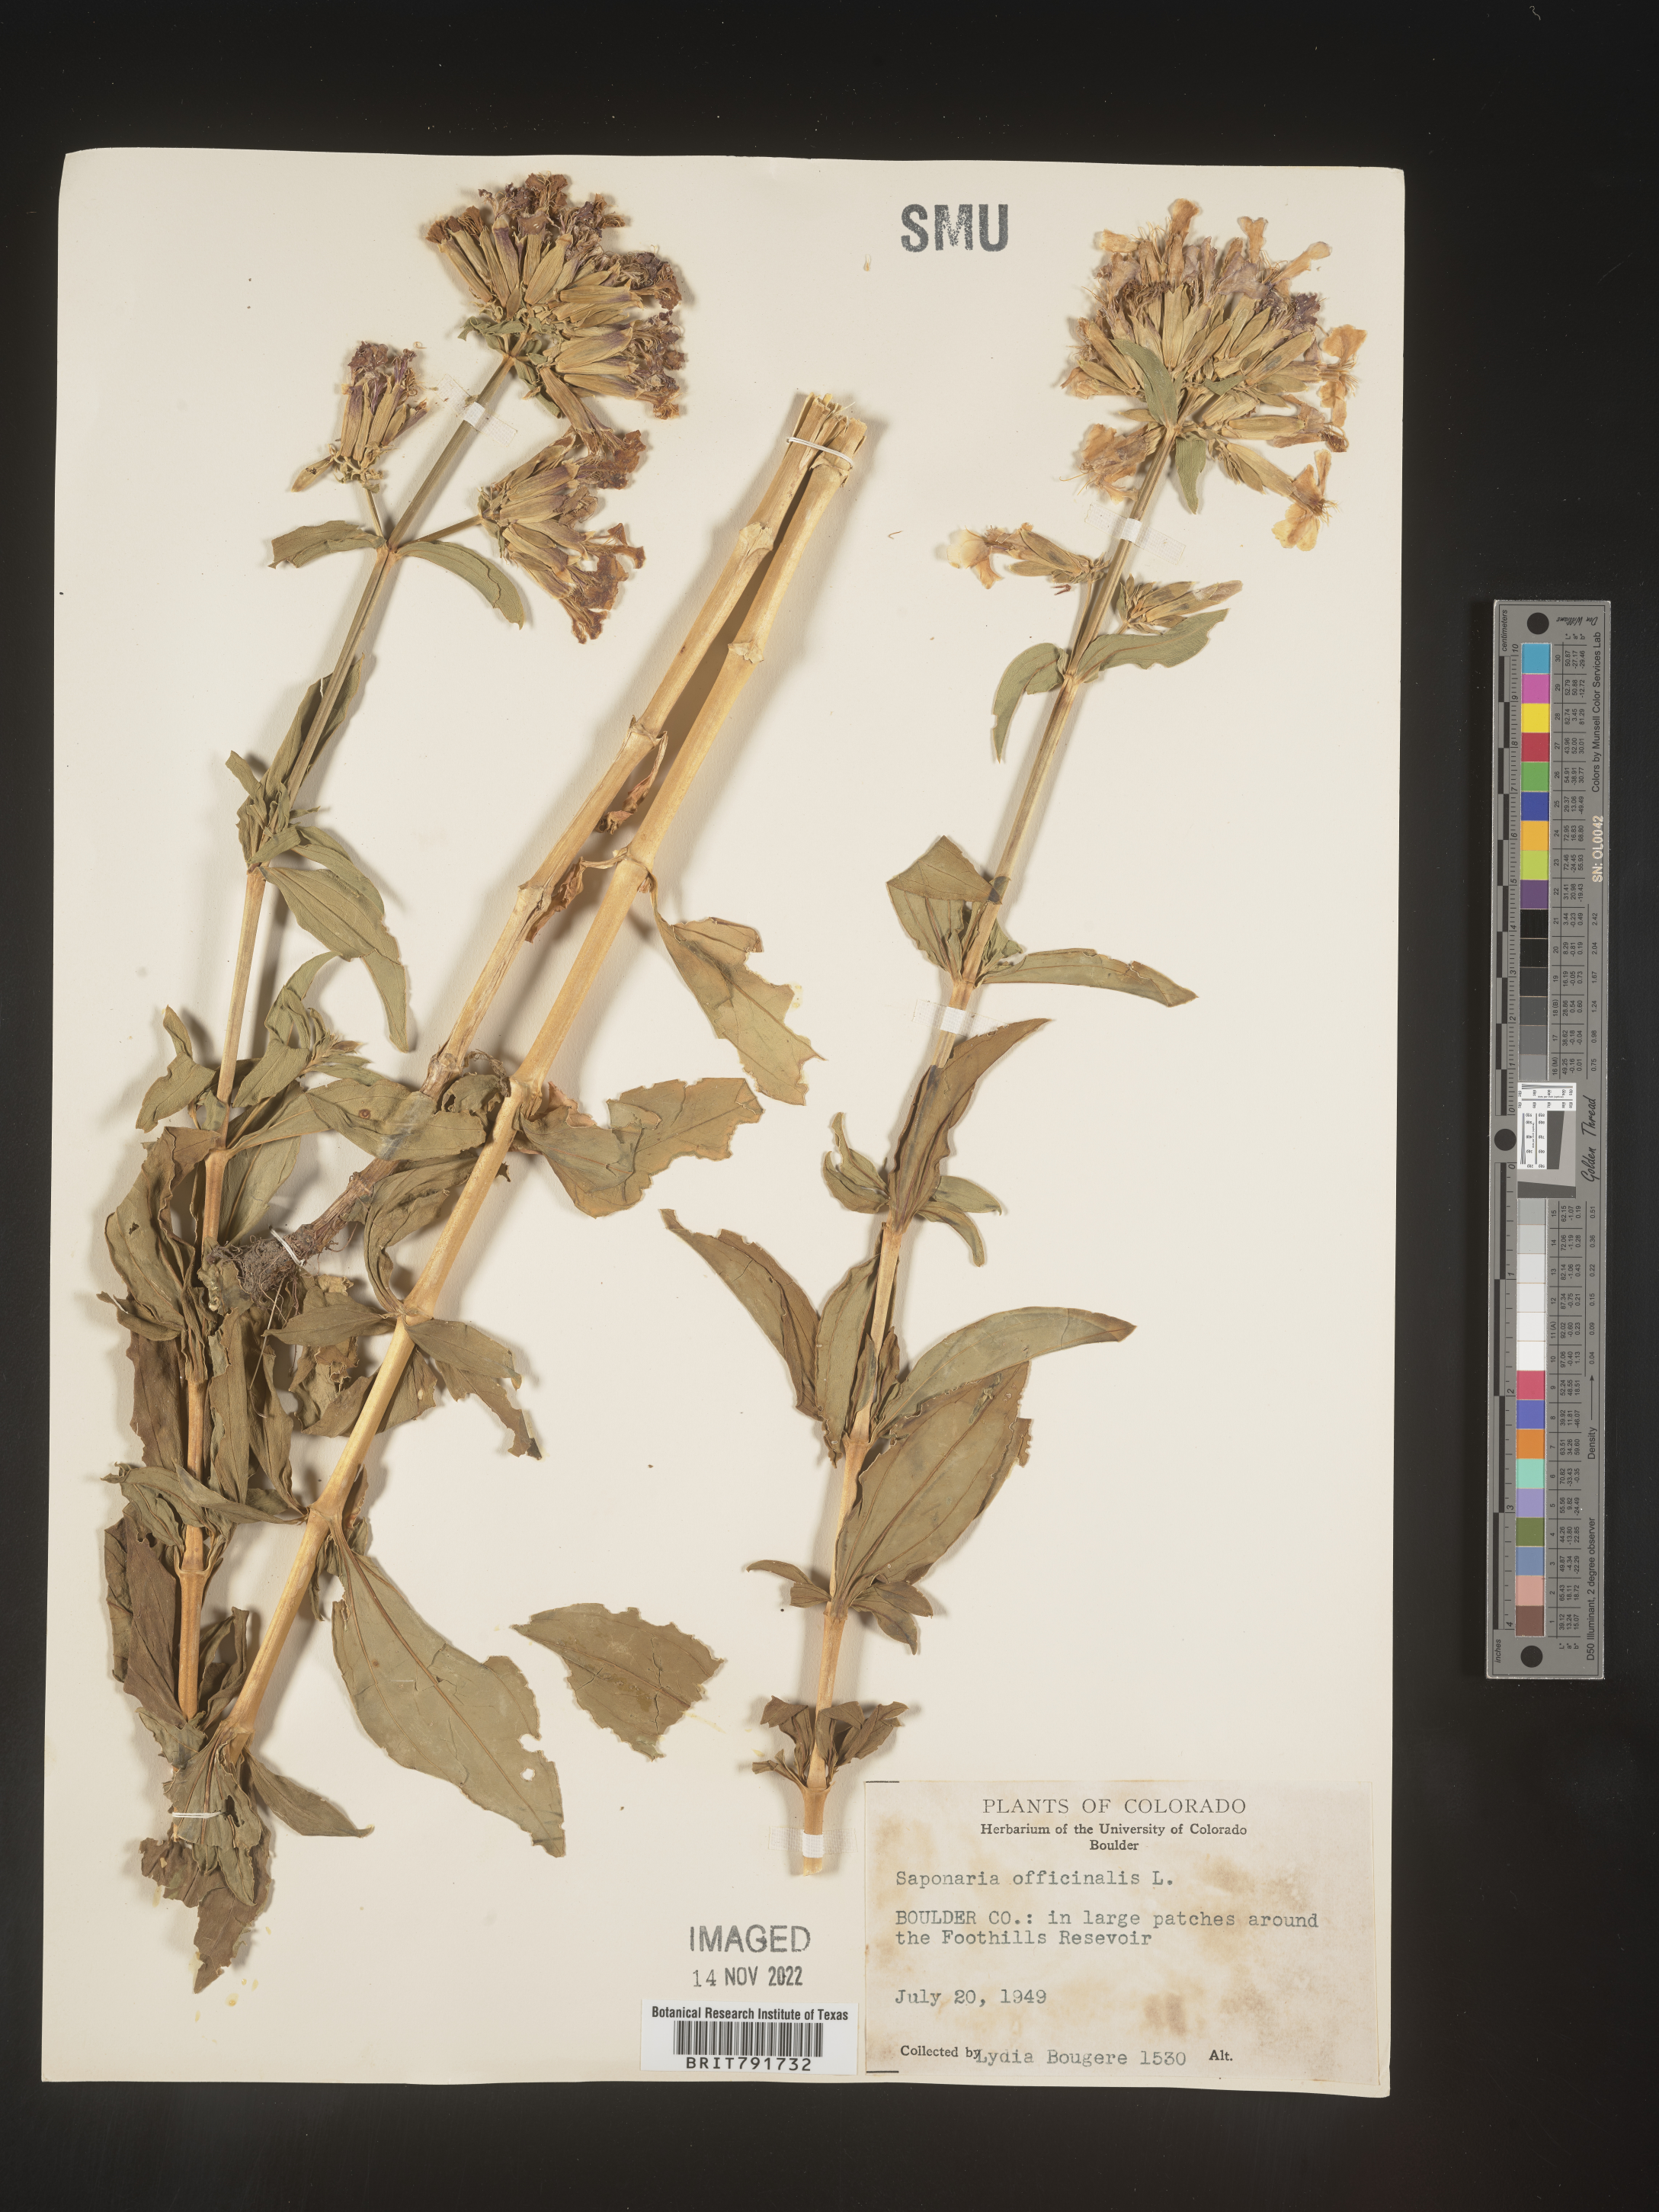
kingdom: Plantae
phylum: Tracheophyta
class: Magnoliopsida
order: Caryophyllales
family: Caryophyllaceae
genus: Saponaria
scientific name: Saponaria officinalis
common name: Soapwort
